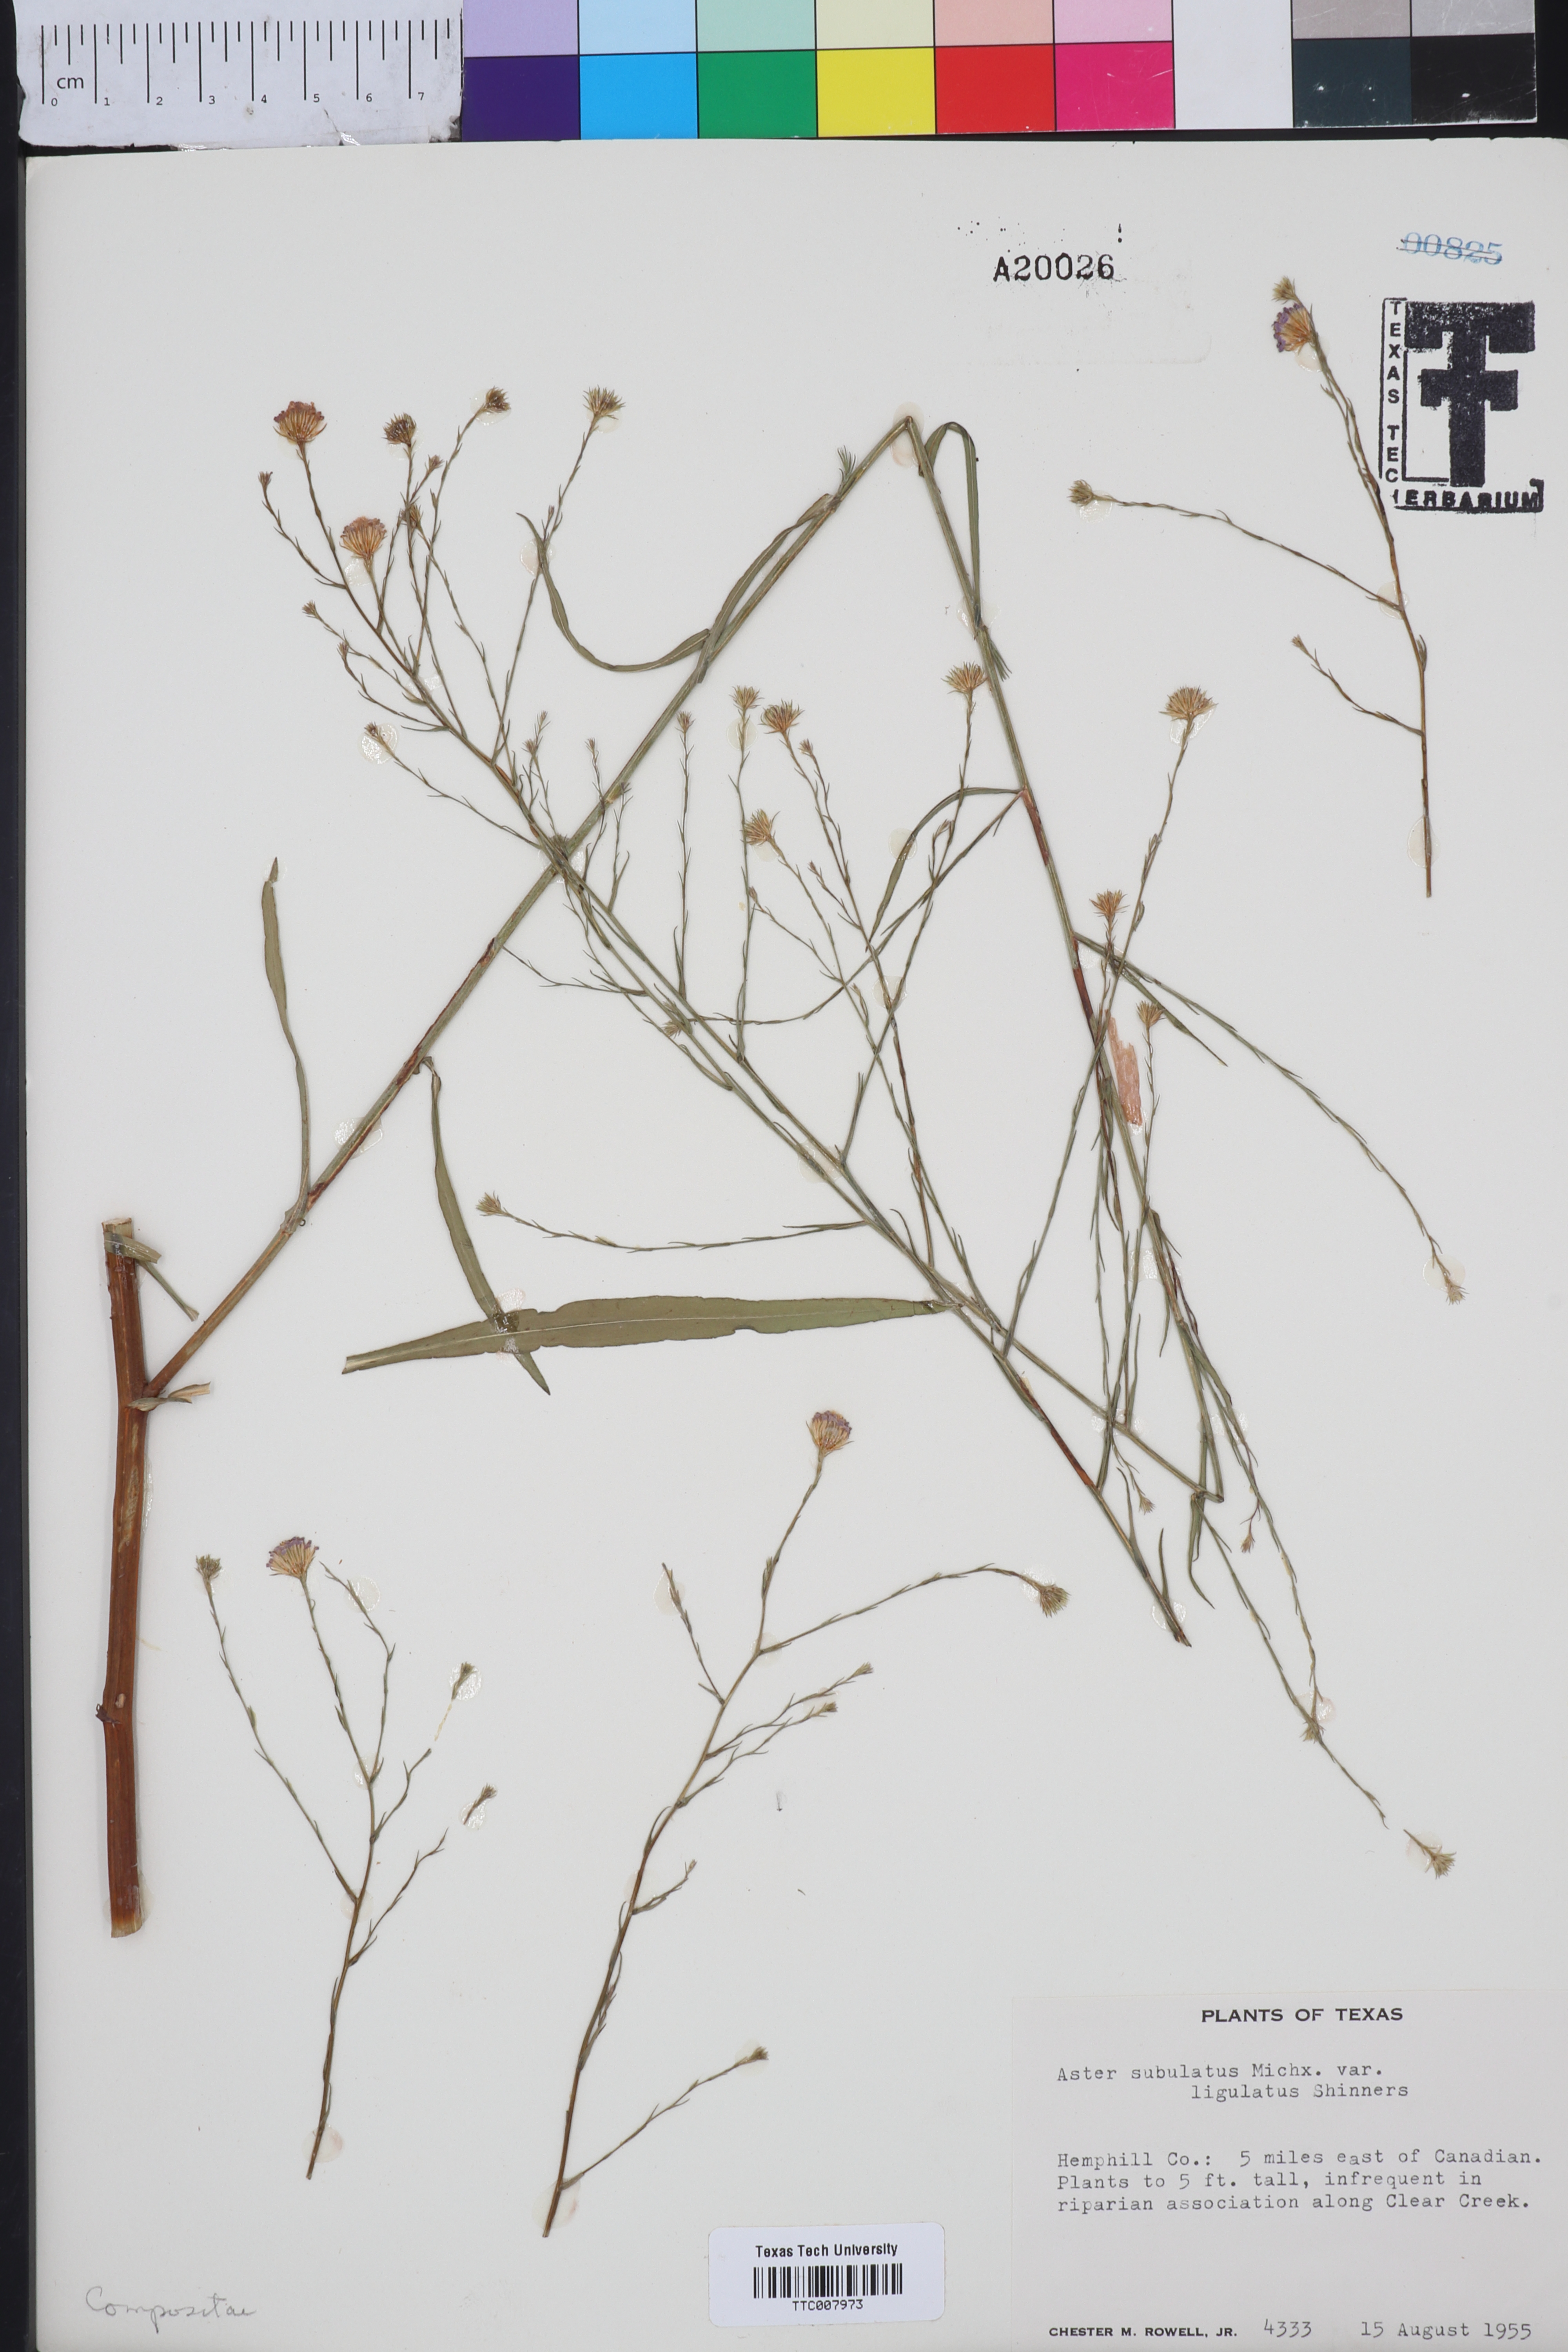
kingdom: Plantae
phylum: Tracheophyta
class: Magnoliopsida
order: Asterales
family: Asteraceae
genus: Symphyotrichum
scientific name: Symphyotrichum divaricatum
